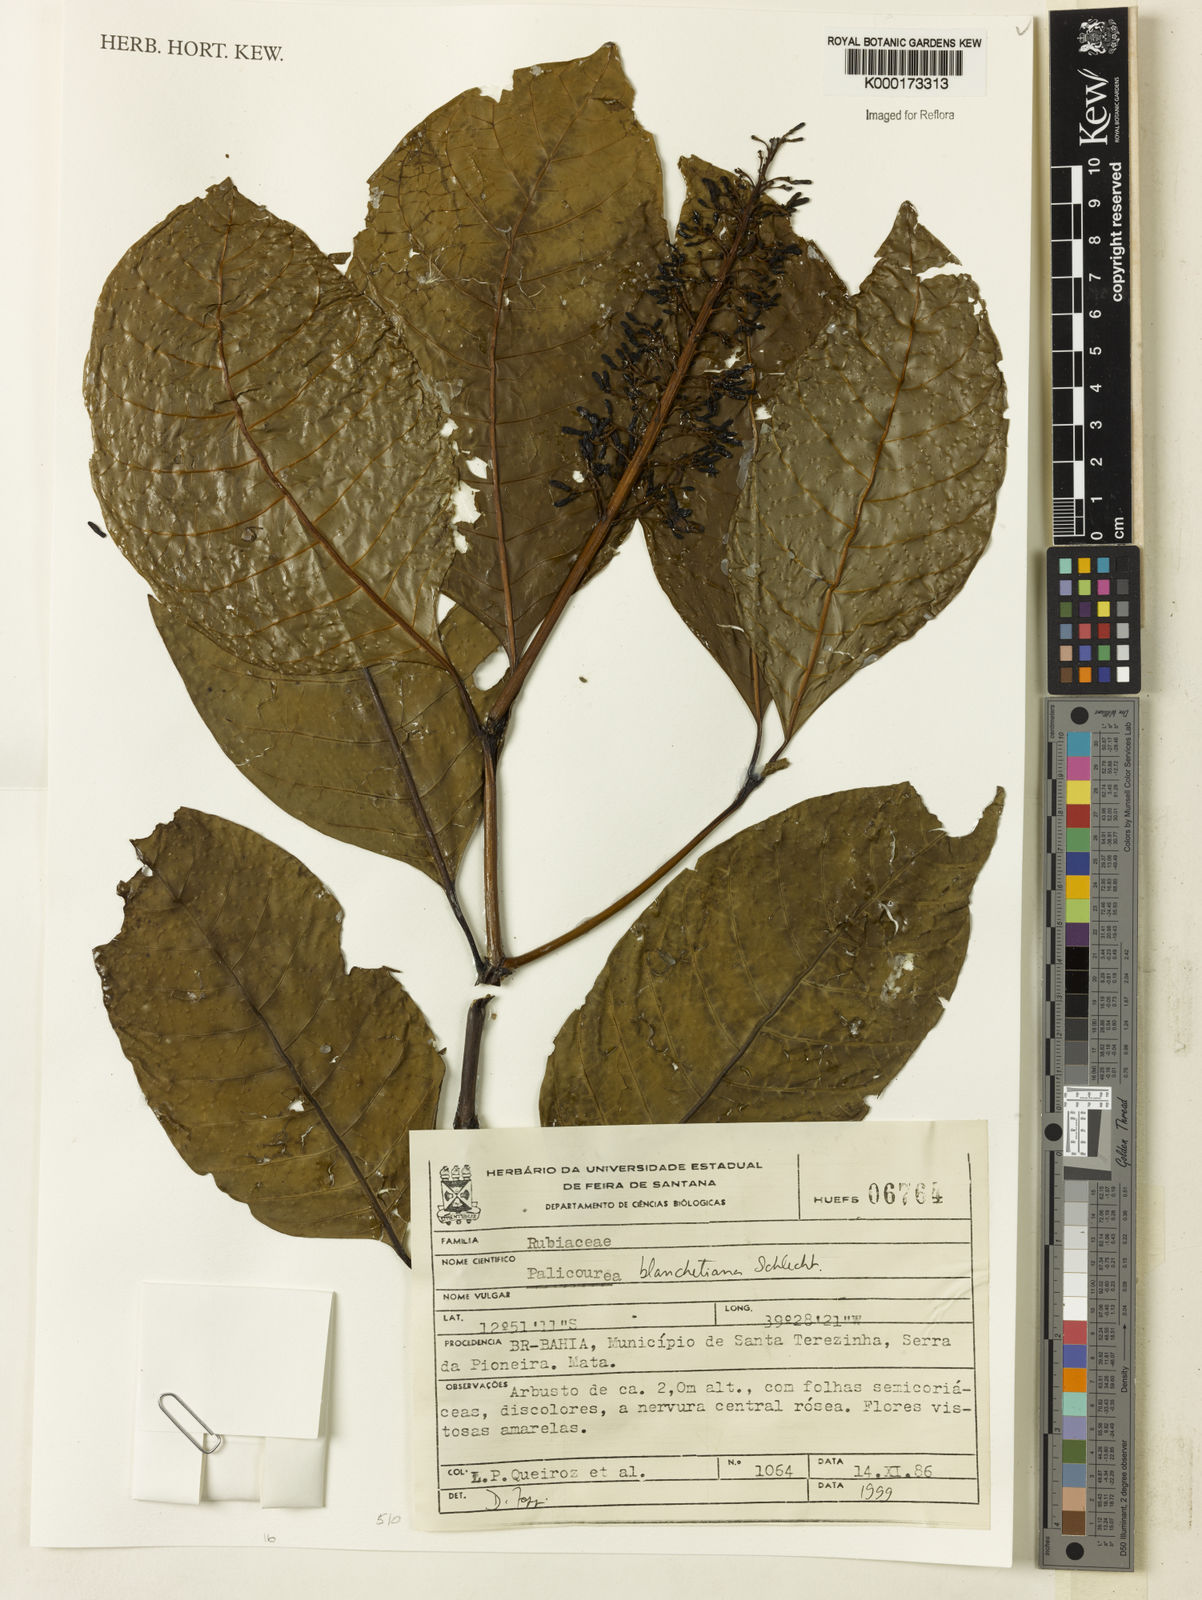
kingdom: Plantae
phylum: Tracheophyta
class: Magnoliopsida
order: Gentianales
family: Rubiaceae
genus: Palicourea
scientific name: Palicourea blanchetiana
